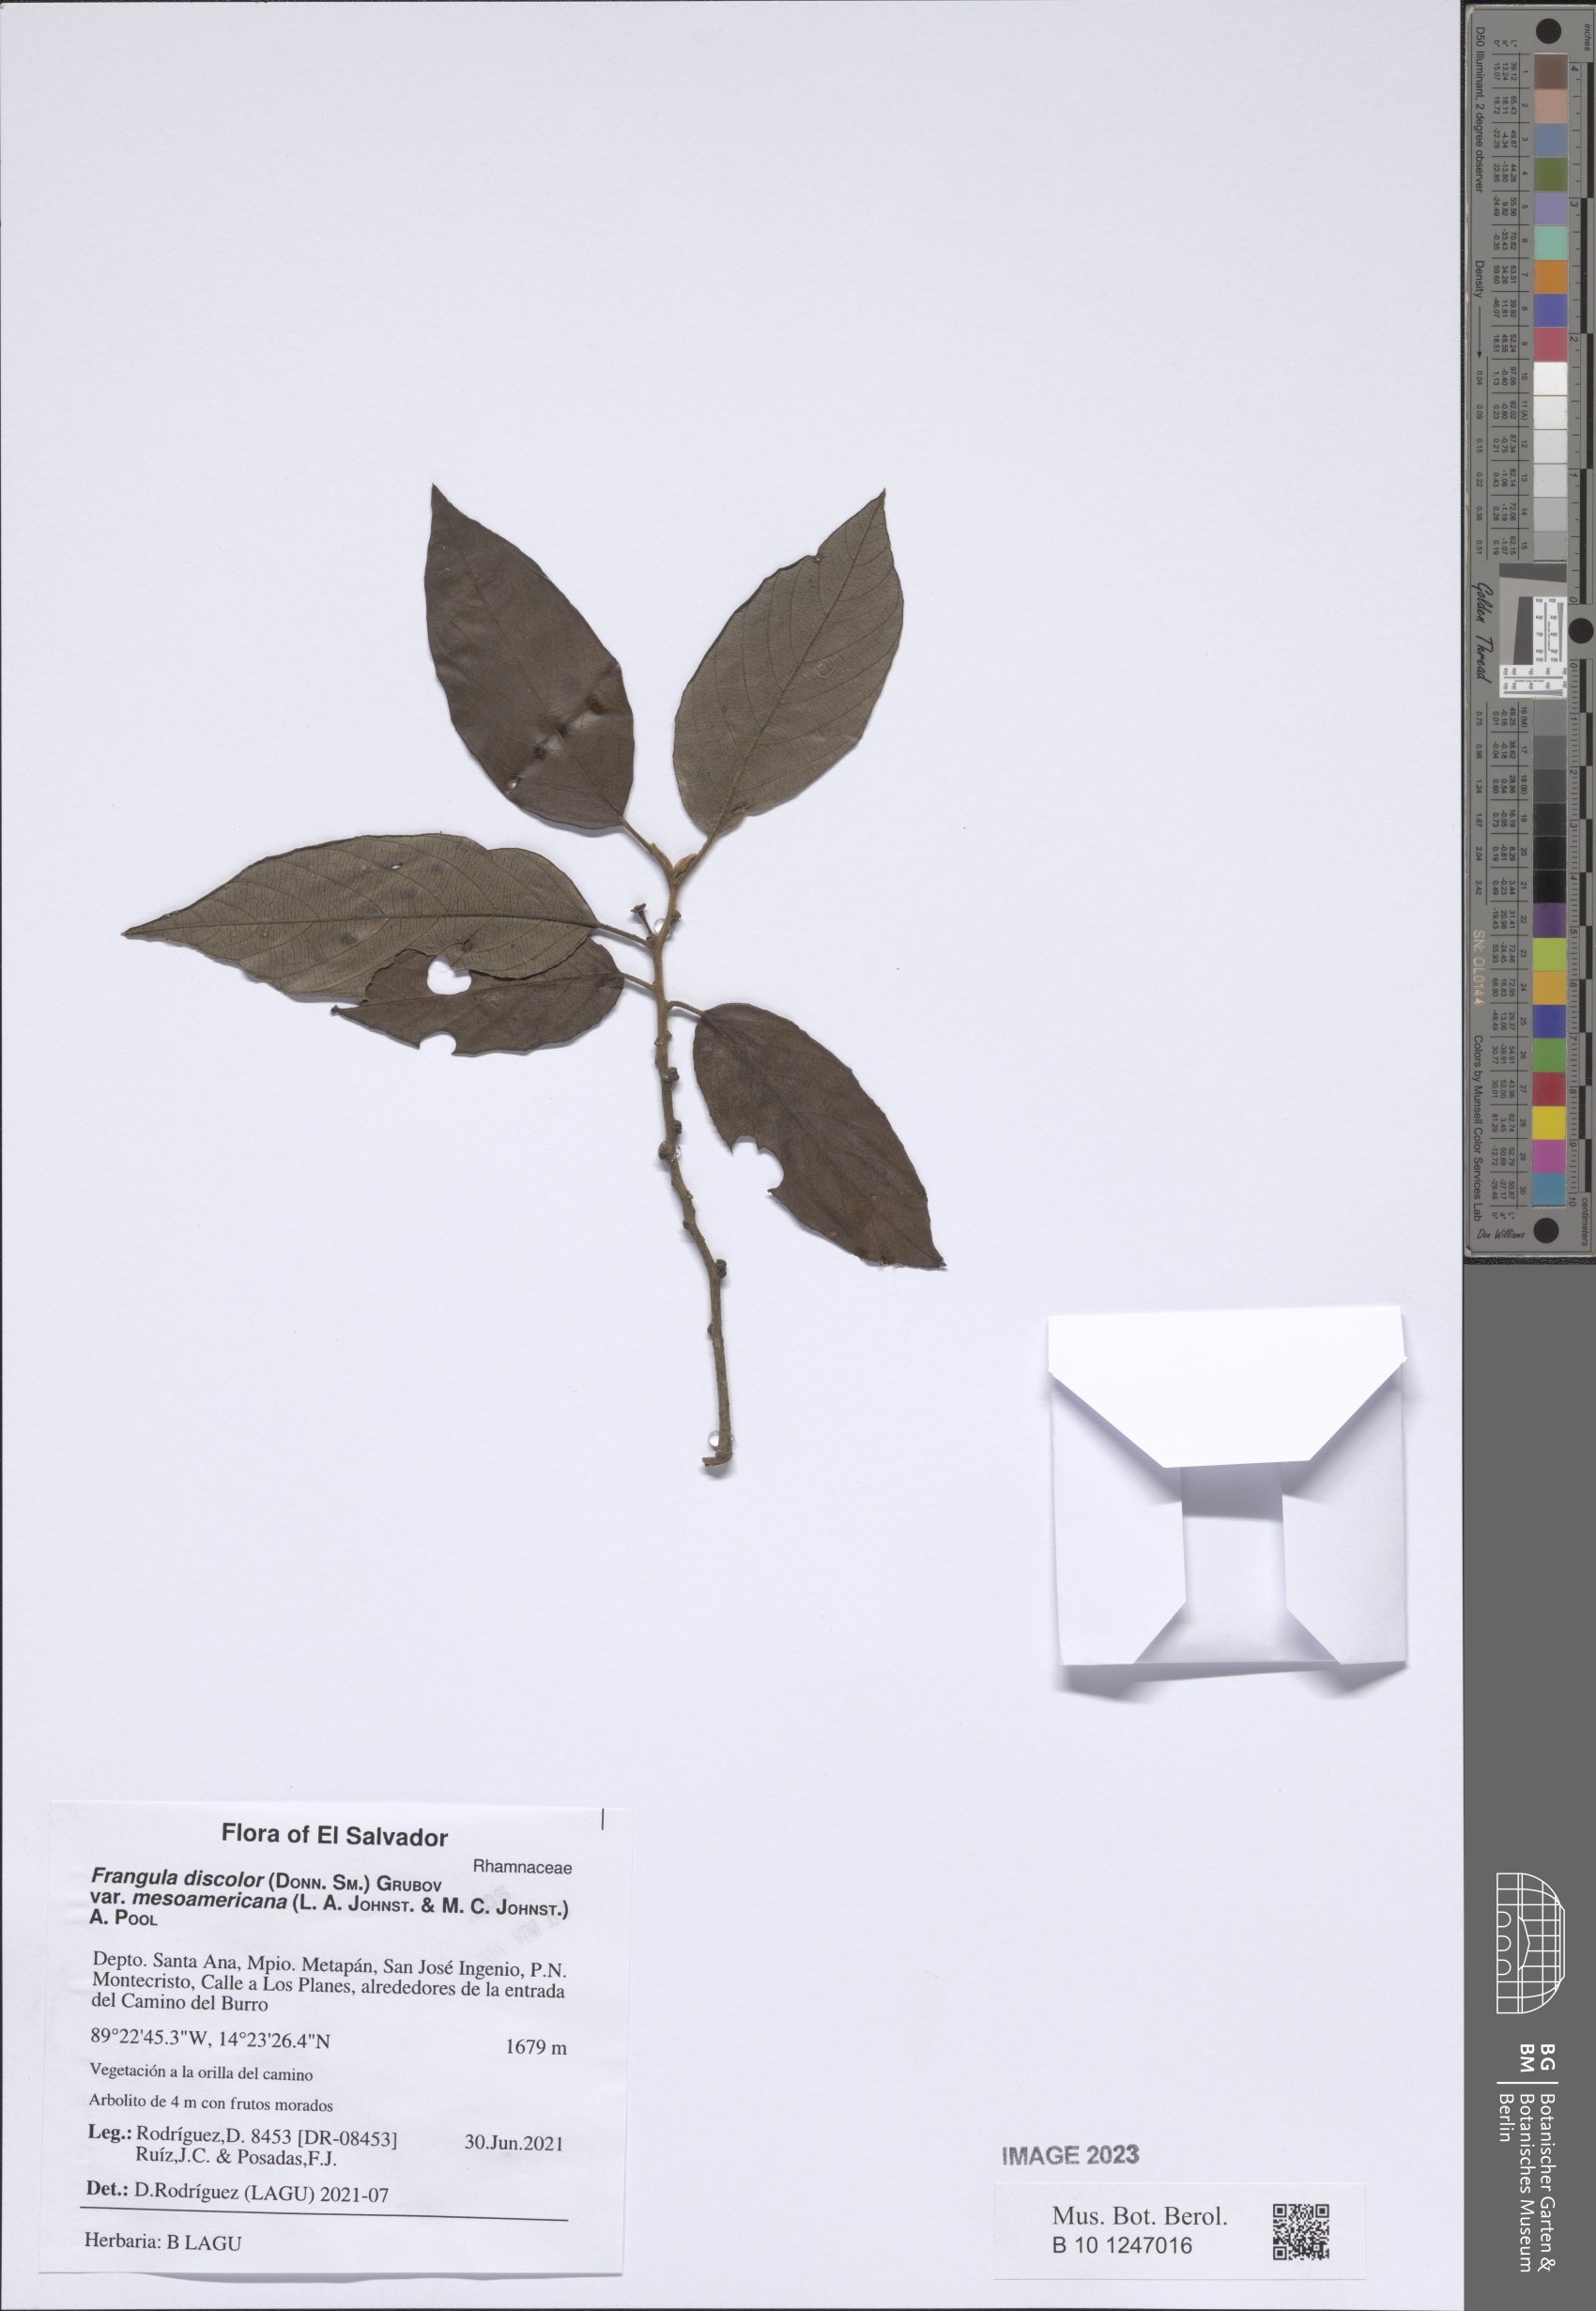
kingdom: Plantae
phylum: Tracheophyta
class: Magnoliopsida
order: Rosales
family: Rhamnaceae
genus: Frangula
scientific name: Frangula discolor
